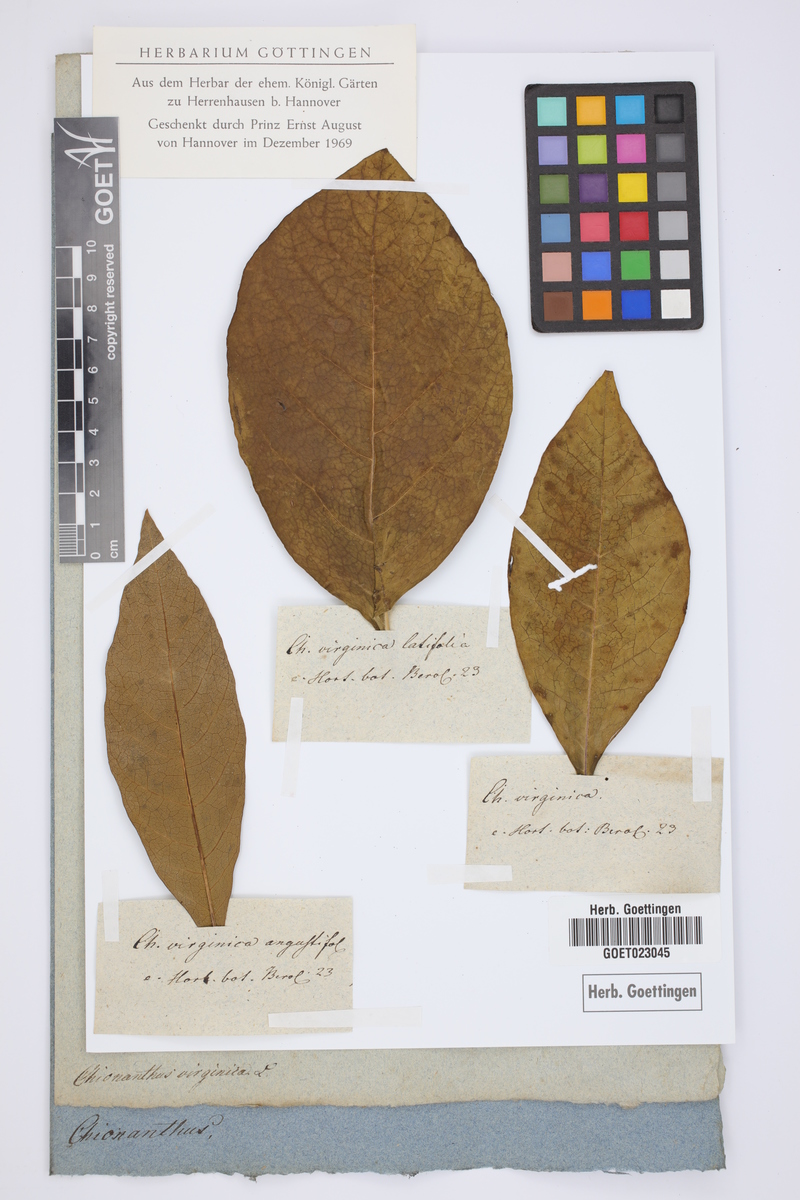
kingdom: Plantae
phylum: Tracheophyta
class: Magnoliopsida
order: Lamiales
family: Oleaceae
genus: Chionanthus
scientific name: Chionanthus virginicus
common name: American fringetree
